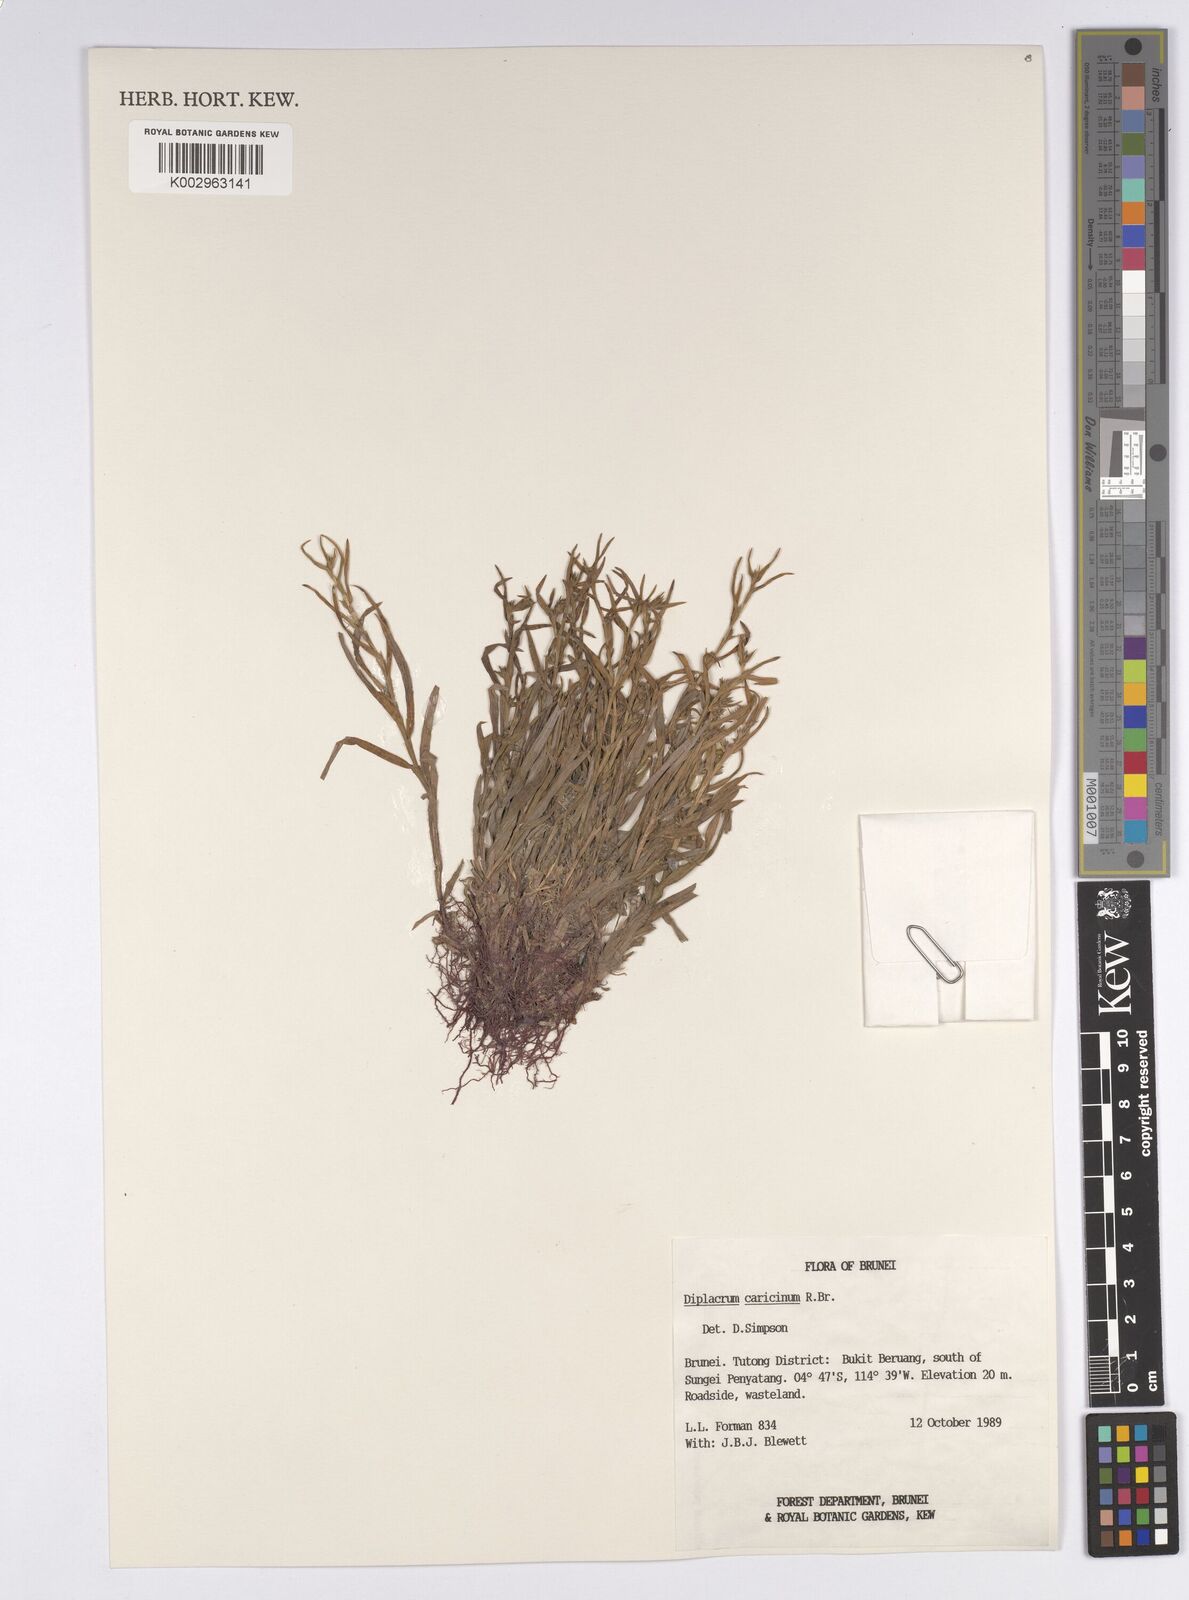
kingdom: Plantae
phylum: Tracheophyta
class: Liliopsida
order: Poales
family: Cyperaceae
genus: Diplacrum
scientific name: Diplacrum caricinum
